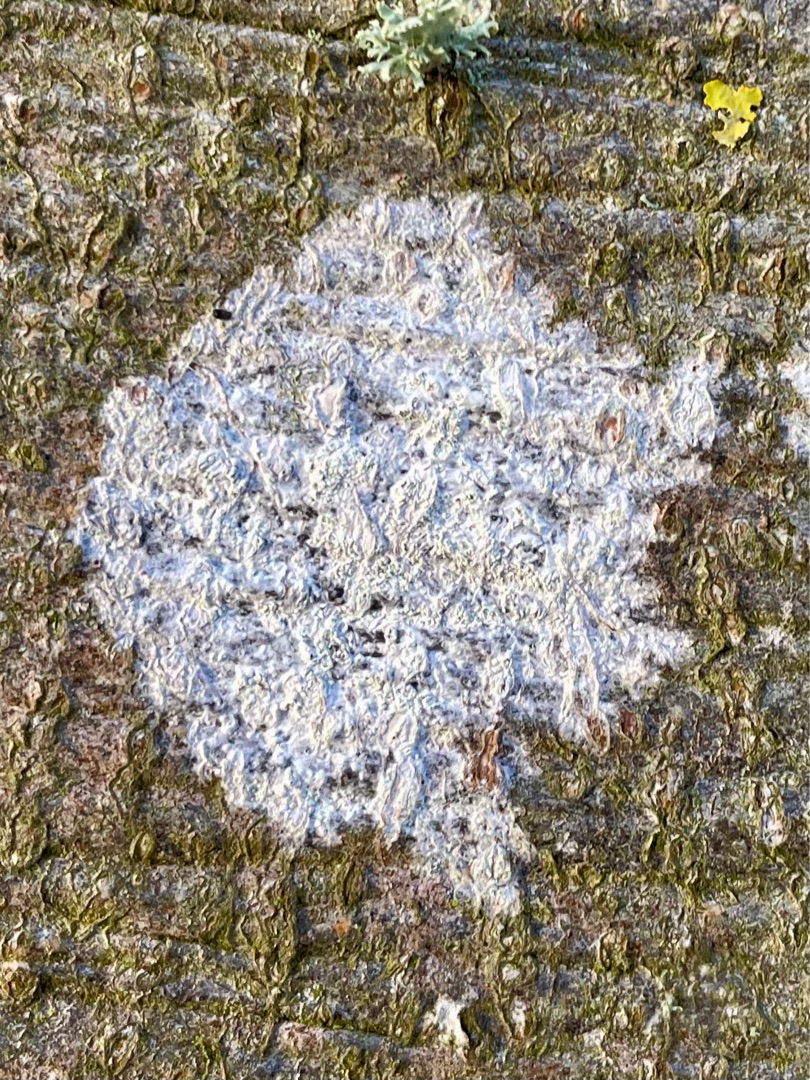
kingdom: Fungi
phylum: Ascomycota
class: Lecanoromycetes
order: Ostropales
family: Phlyctidaceae
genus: Phlyctis
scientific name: Phlyctis argena
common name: Almindelig sølvlav
